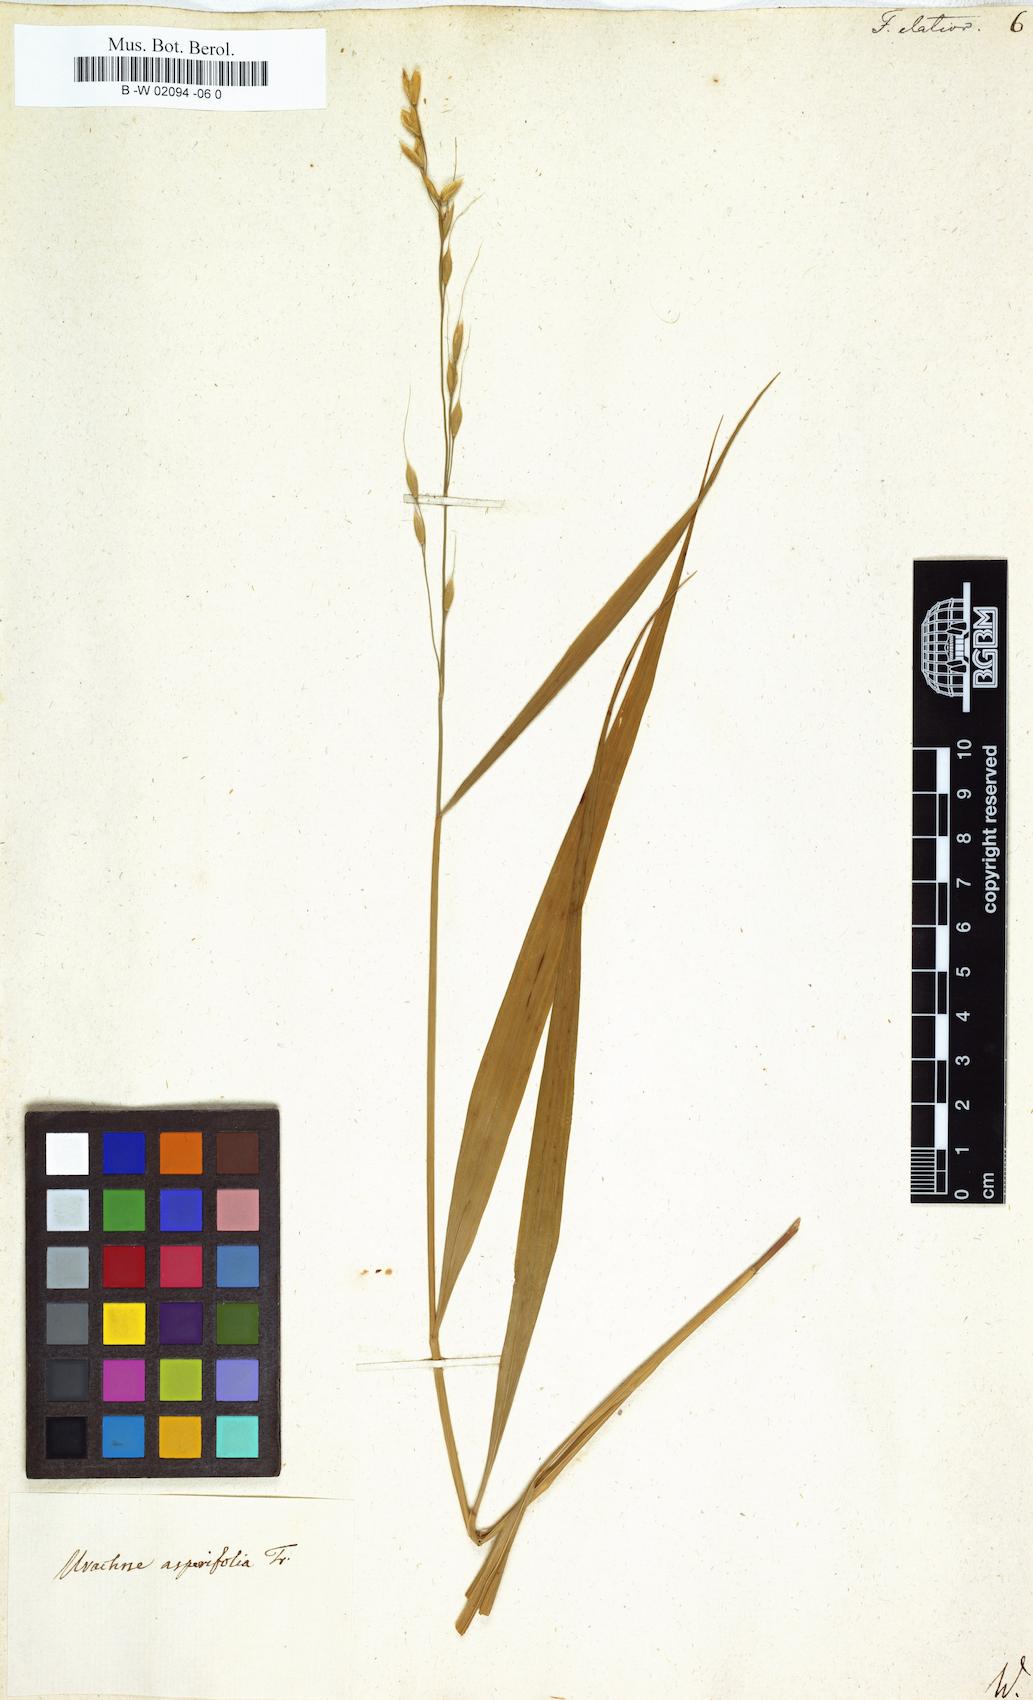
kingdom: Plantae
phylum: Tracheophyta
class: Liliopsida
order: Poales
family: Poaceae
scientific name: Poaceae
